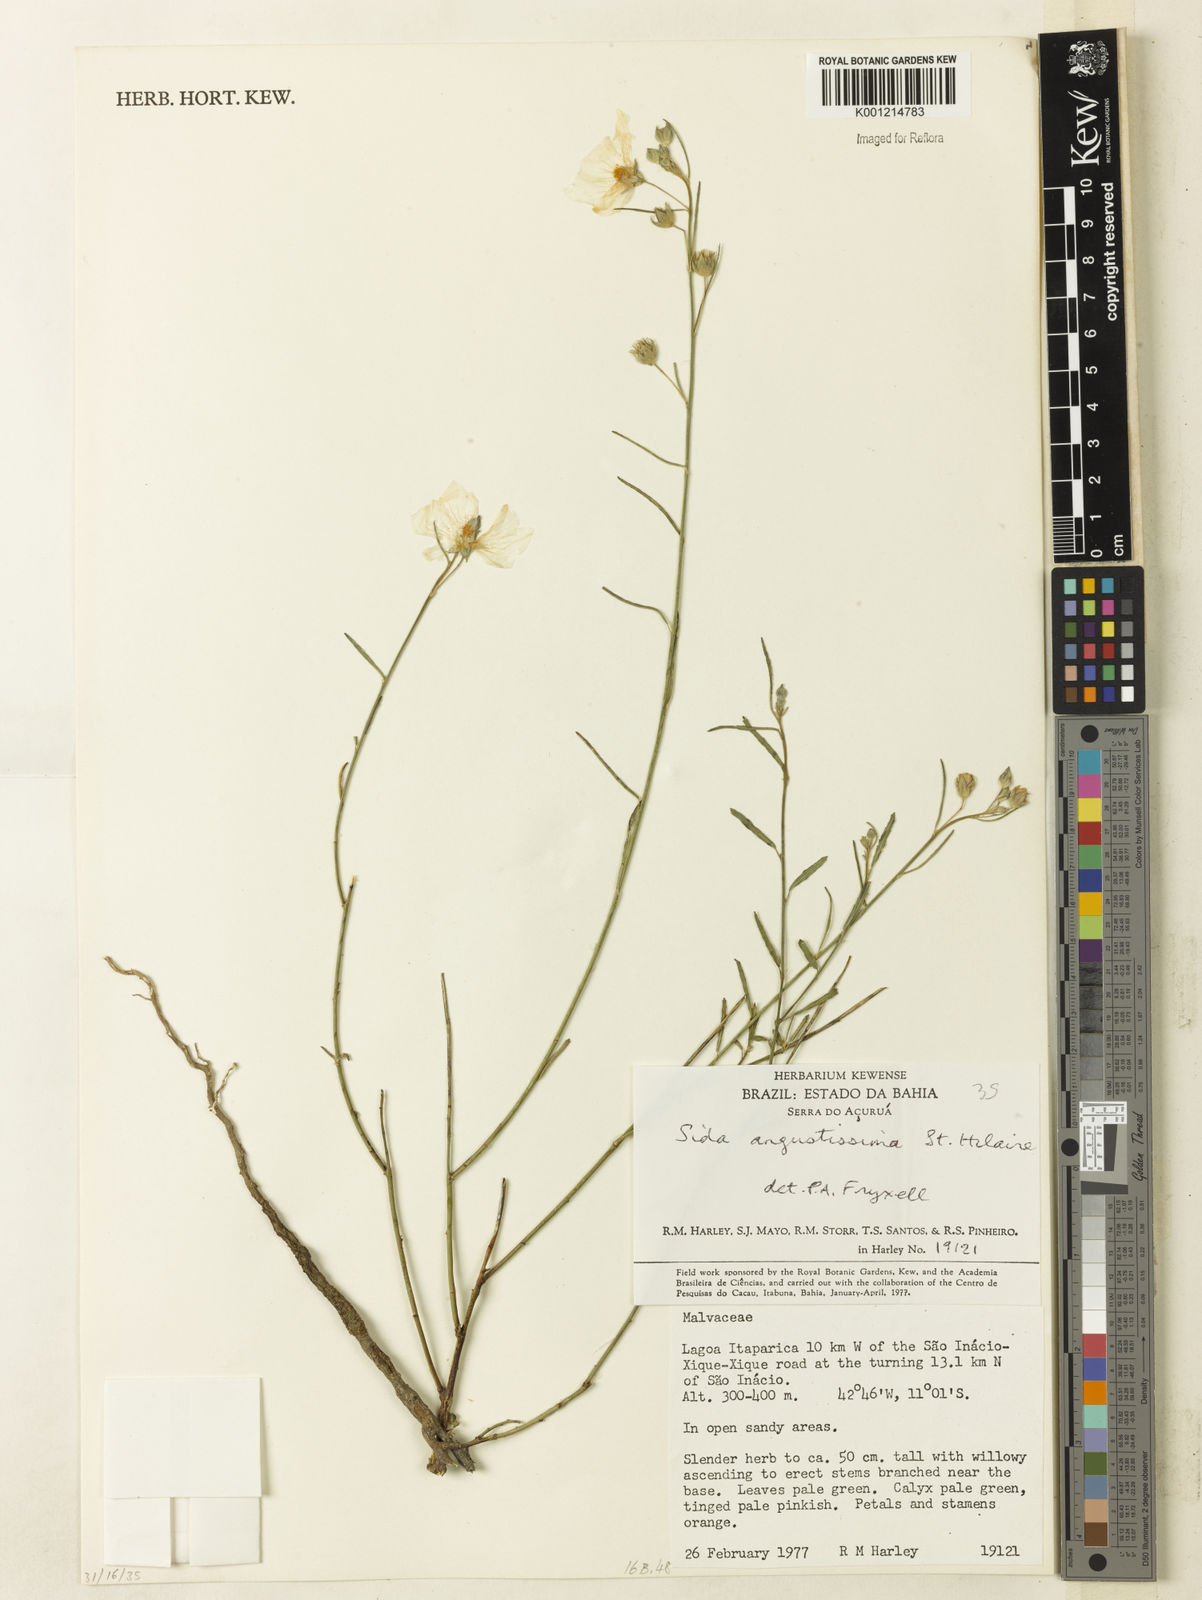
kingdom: Plantae
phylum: Tracheophyta
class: Magnoliopsida
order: Malvales
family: Malvaceae
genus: Sida
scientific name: Sida angustissima
